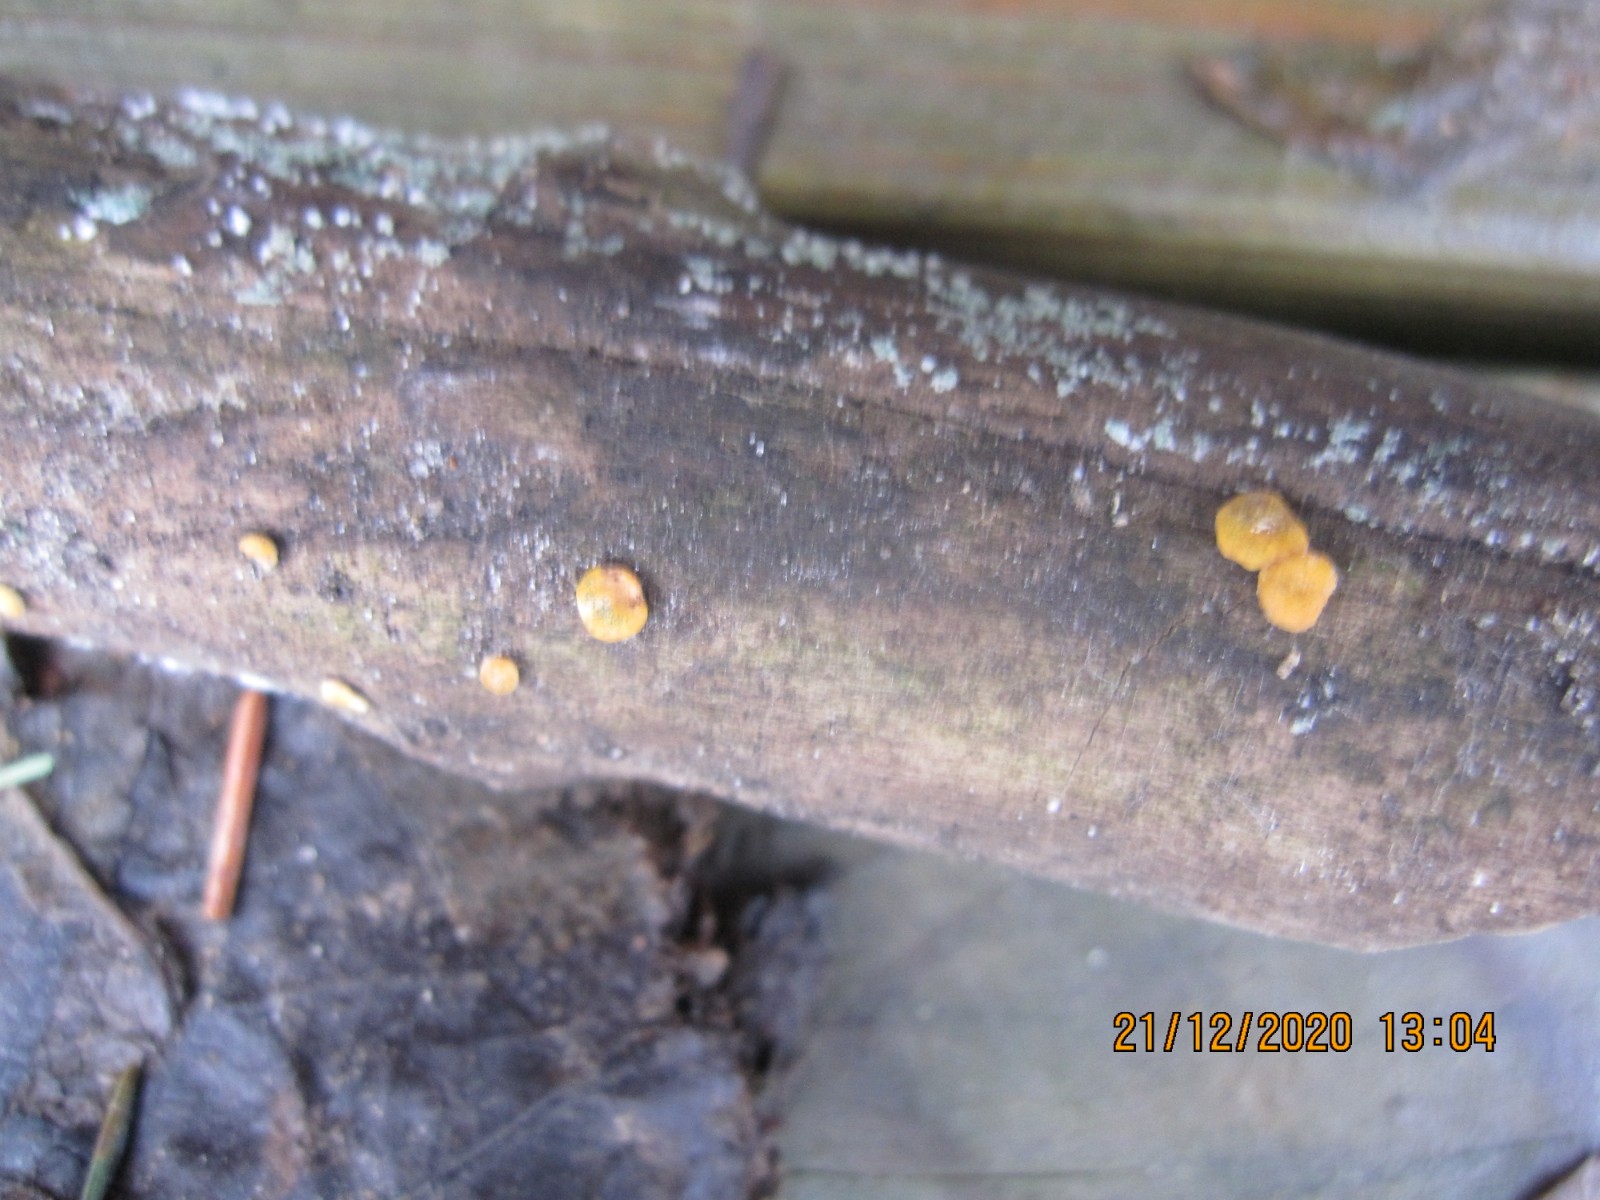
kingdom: Fungi
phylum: Ascomycota
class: Sordariomycetes
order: Hypocreales
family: Hypocreaceae
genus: Trichoderma
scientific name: Trichoderma aureoviride
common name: æggegul kødkerne
